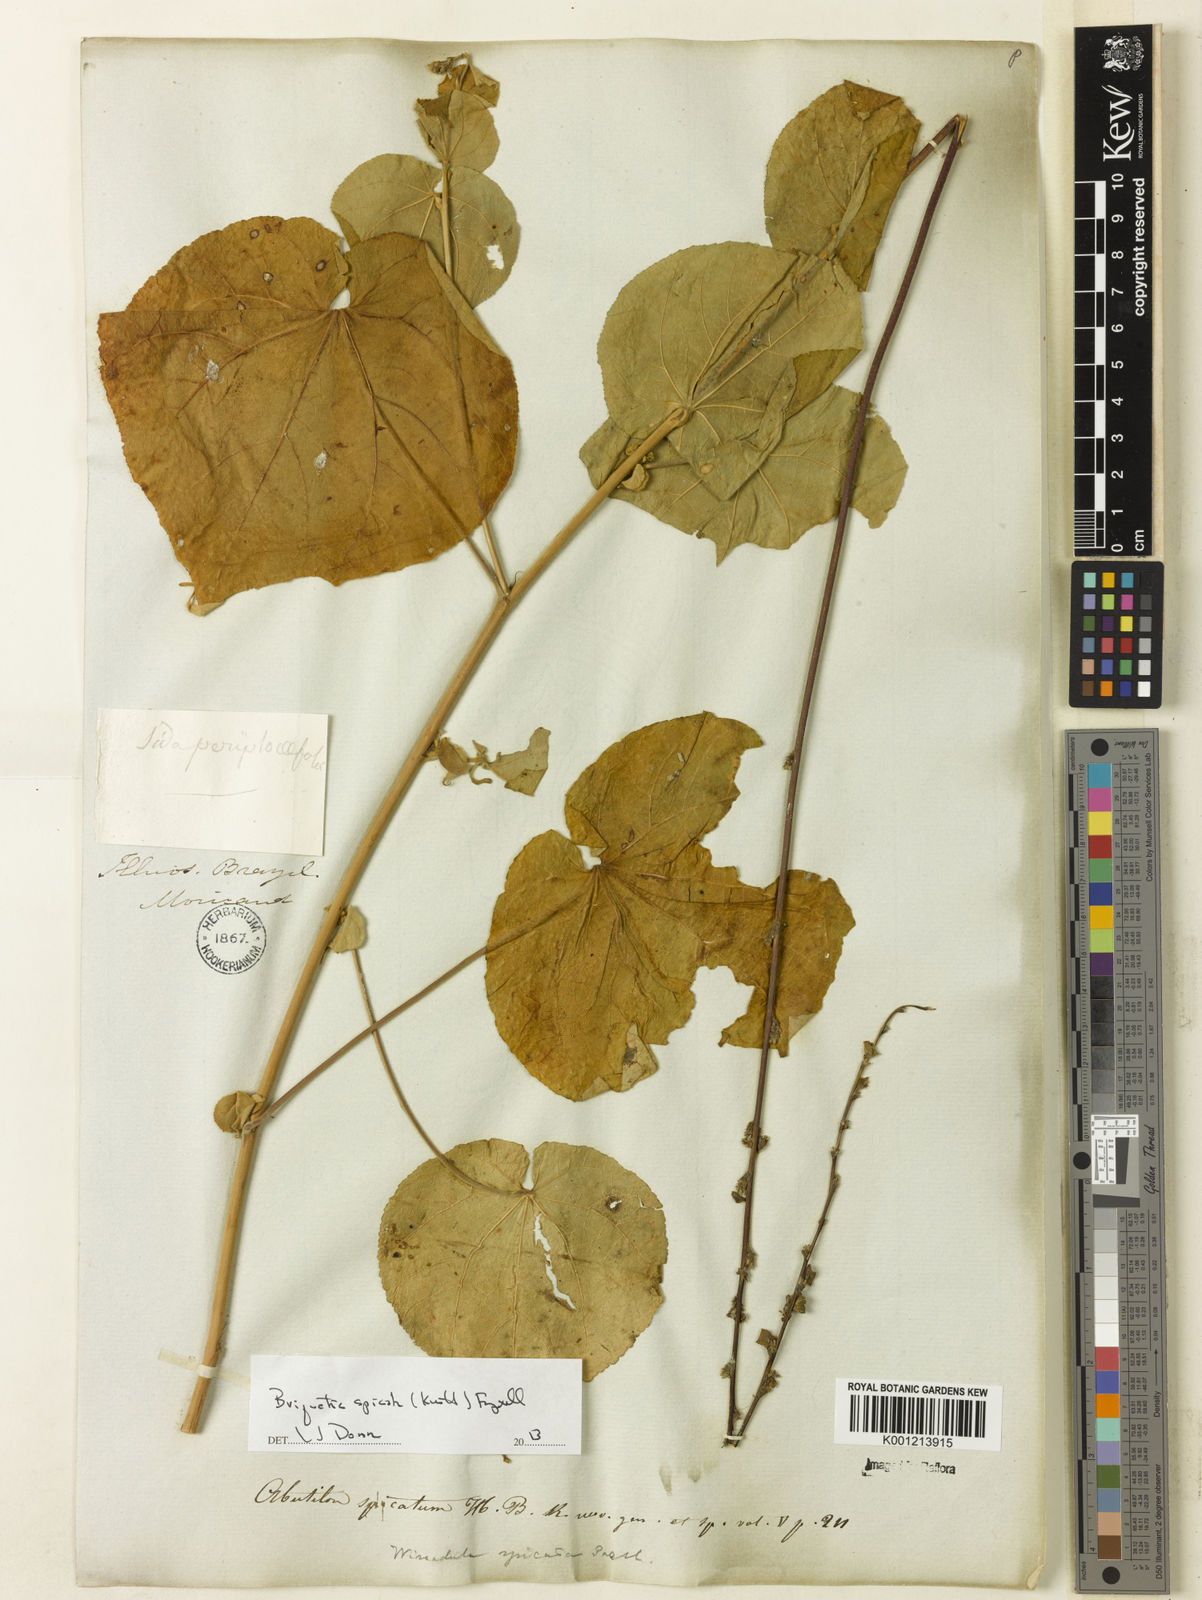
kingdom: Plantae
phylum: Tracheophyta
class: Magnoliopsida
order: Malvales
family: Malvaceae
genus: Allobriquetia
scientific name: Allobriquetia spicata
